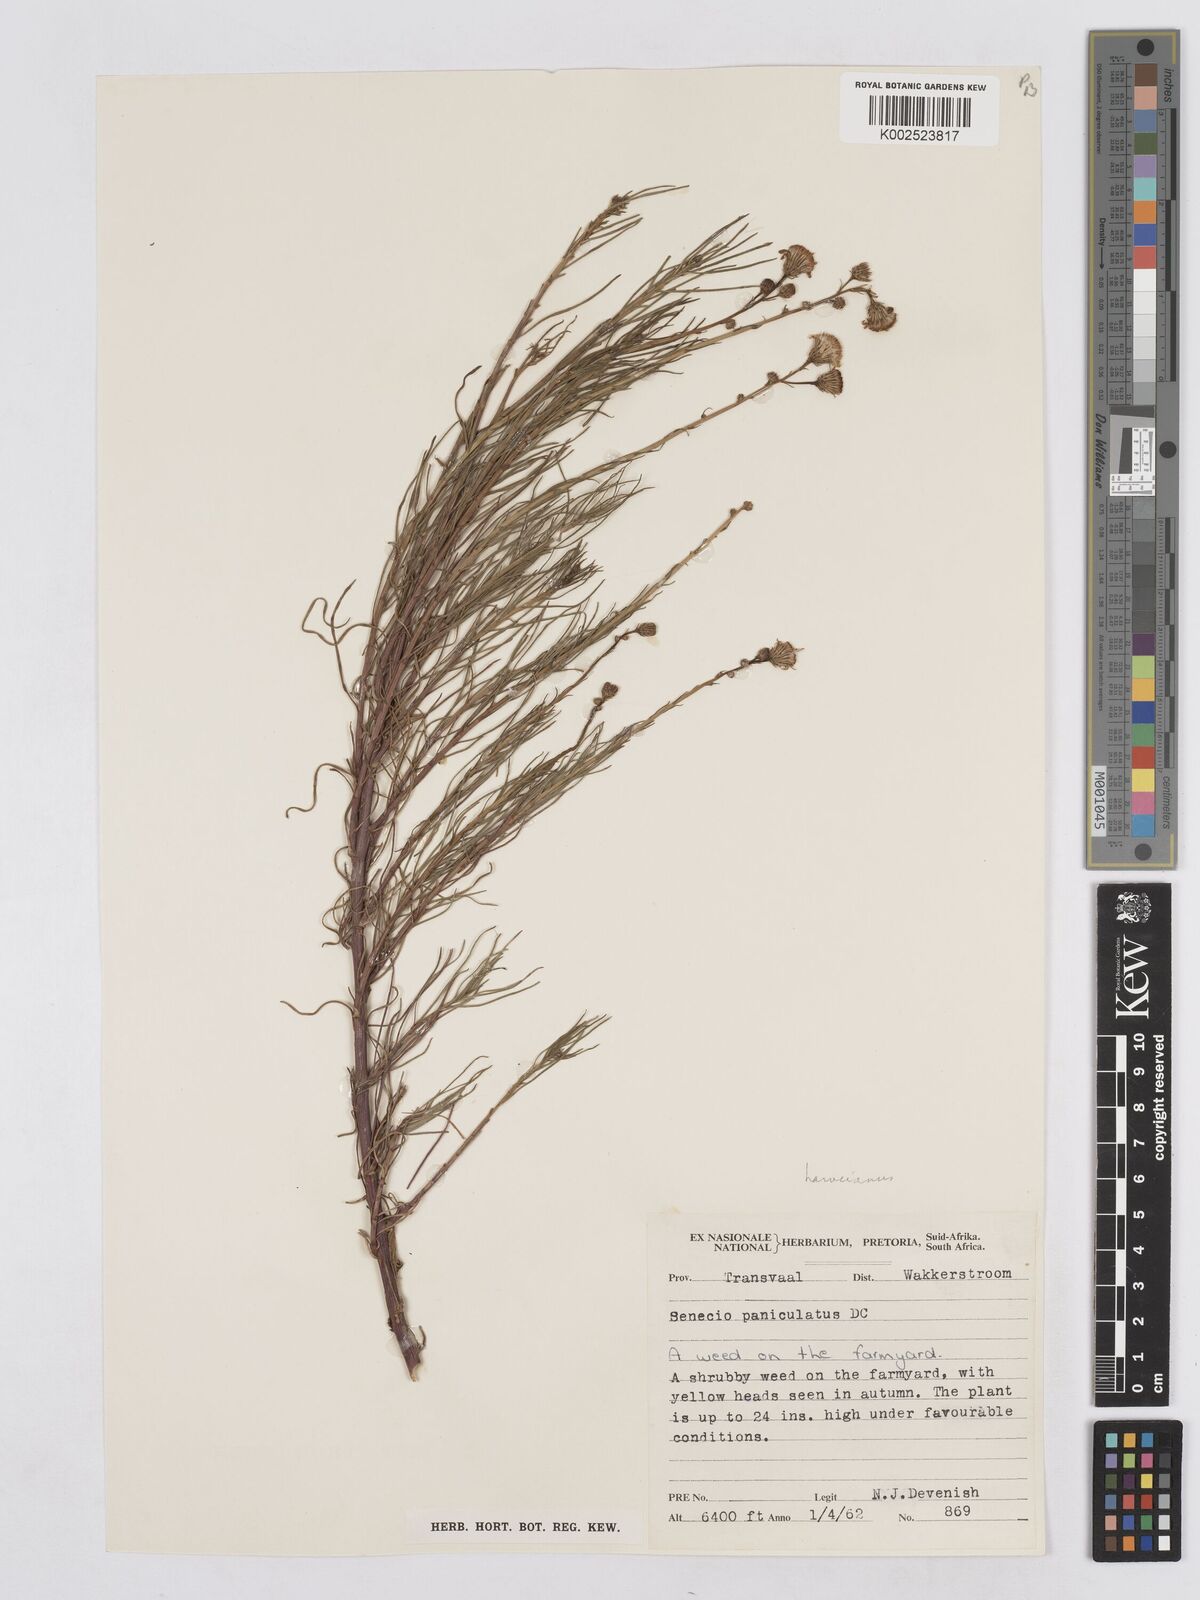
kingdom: Plantae
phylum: Tracheophyta
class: Magnoliopsida
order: Asterales
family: Asteraceae
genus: Senecio
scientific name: Senecio harveyanus
